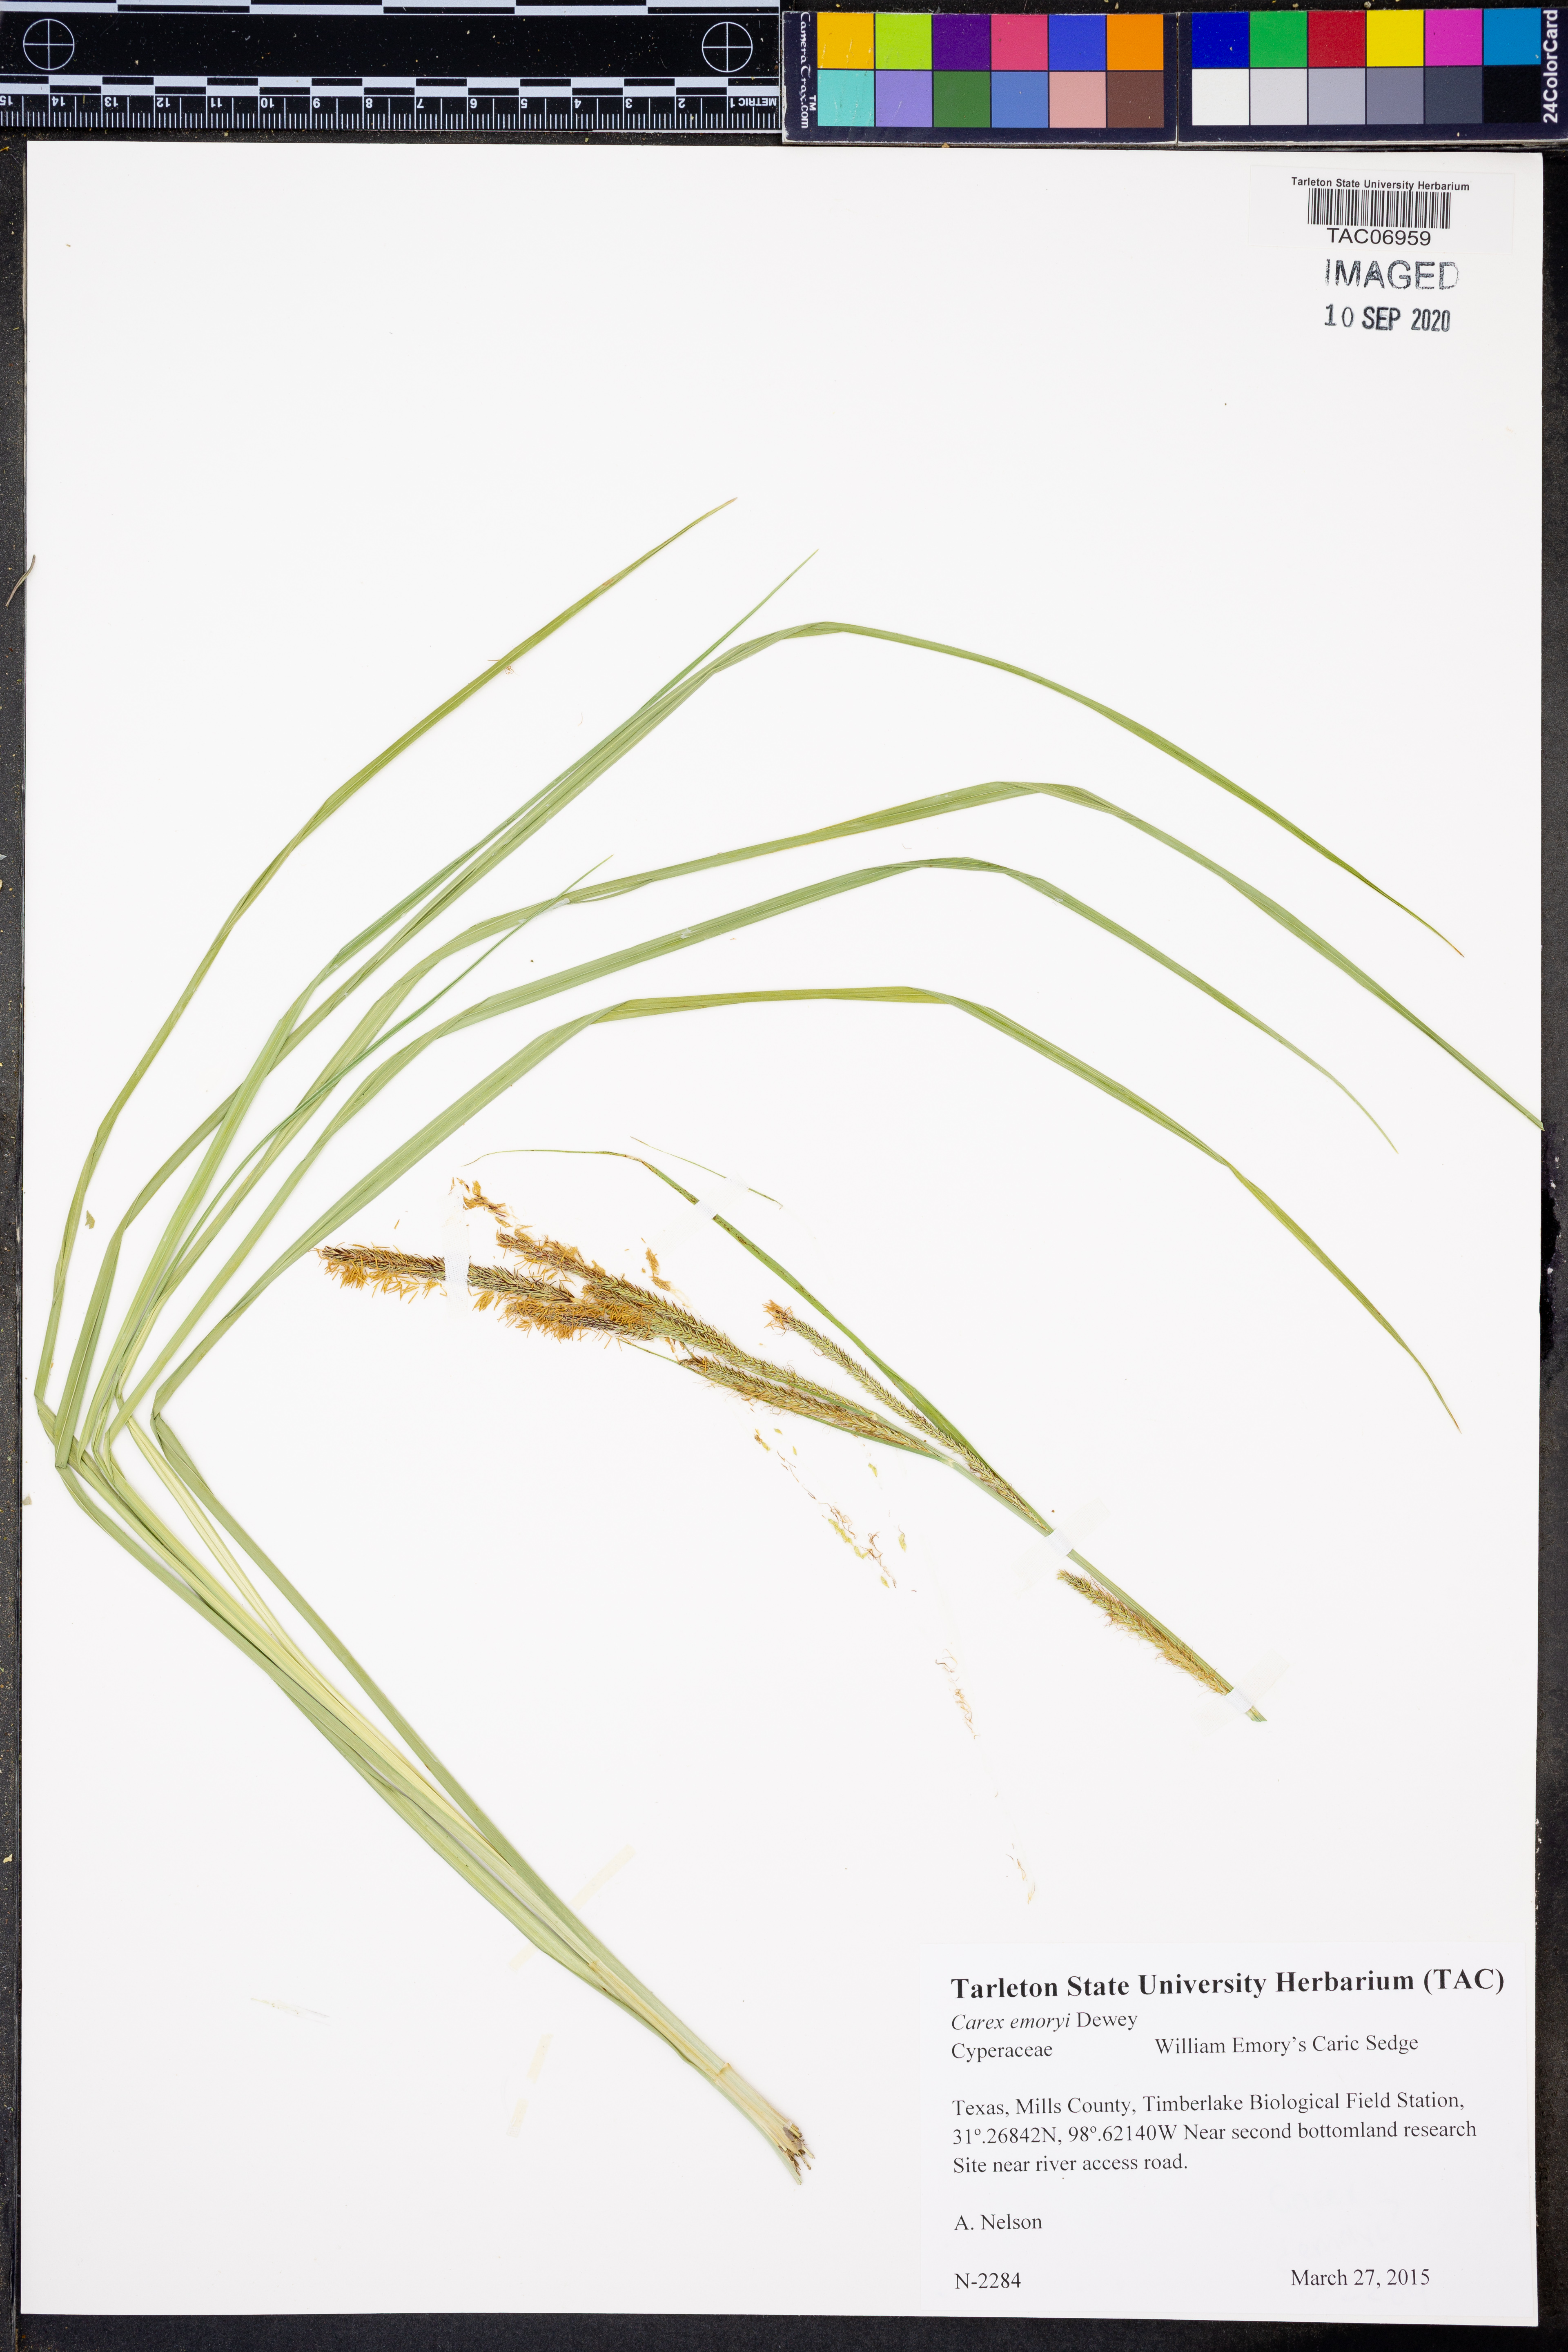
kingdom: Plantae
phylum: Tracheophyta
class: Liliopsida
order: Poales
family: Cyperaceae
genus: Carex
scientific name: Carex emoryi
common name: Emory's sedge
